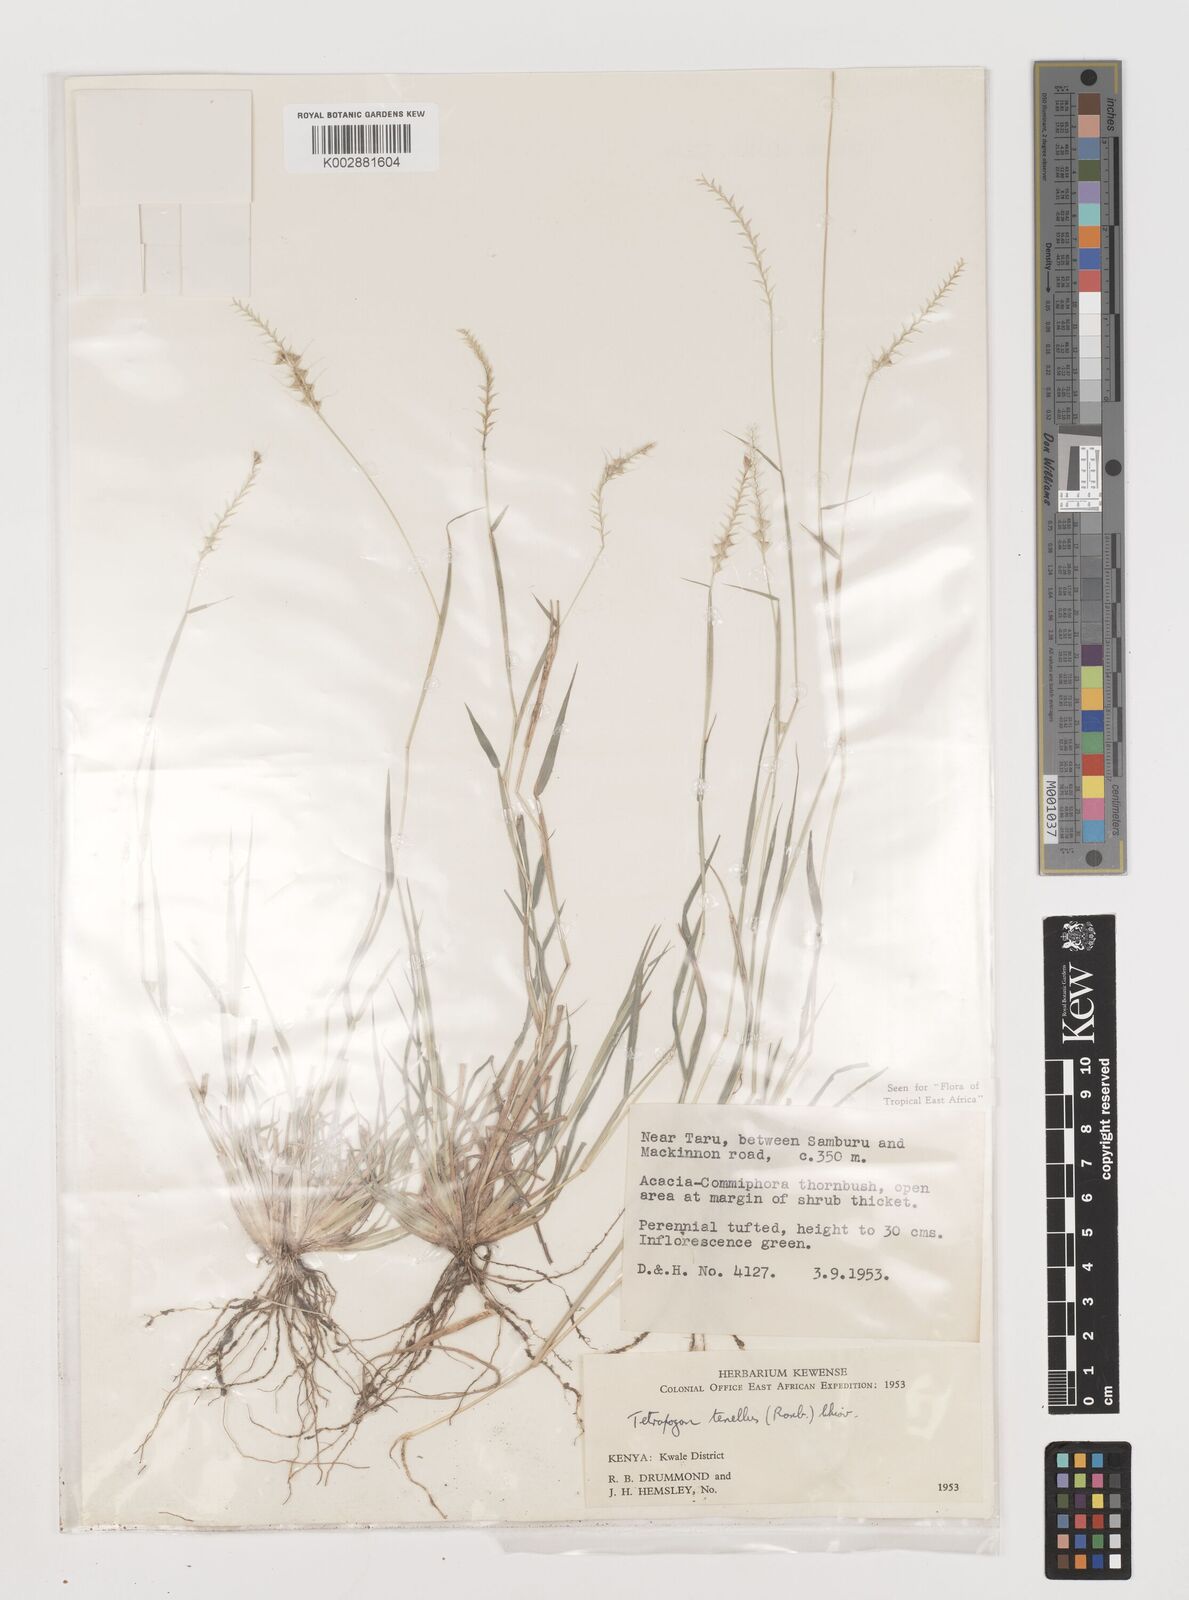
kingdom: Plantae
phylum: Tracheophyta
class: Liliopsida
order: Poales
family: Poaceae
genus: Tetrapogon
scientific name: Tetrapogon tenellus
